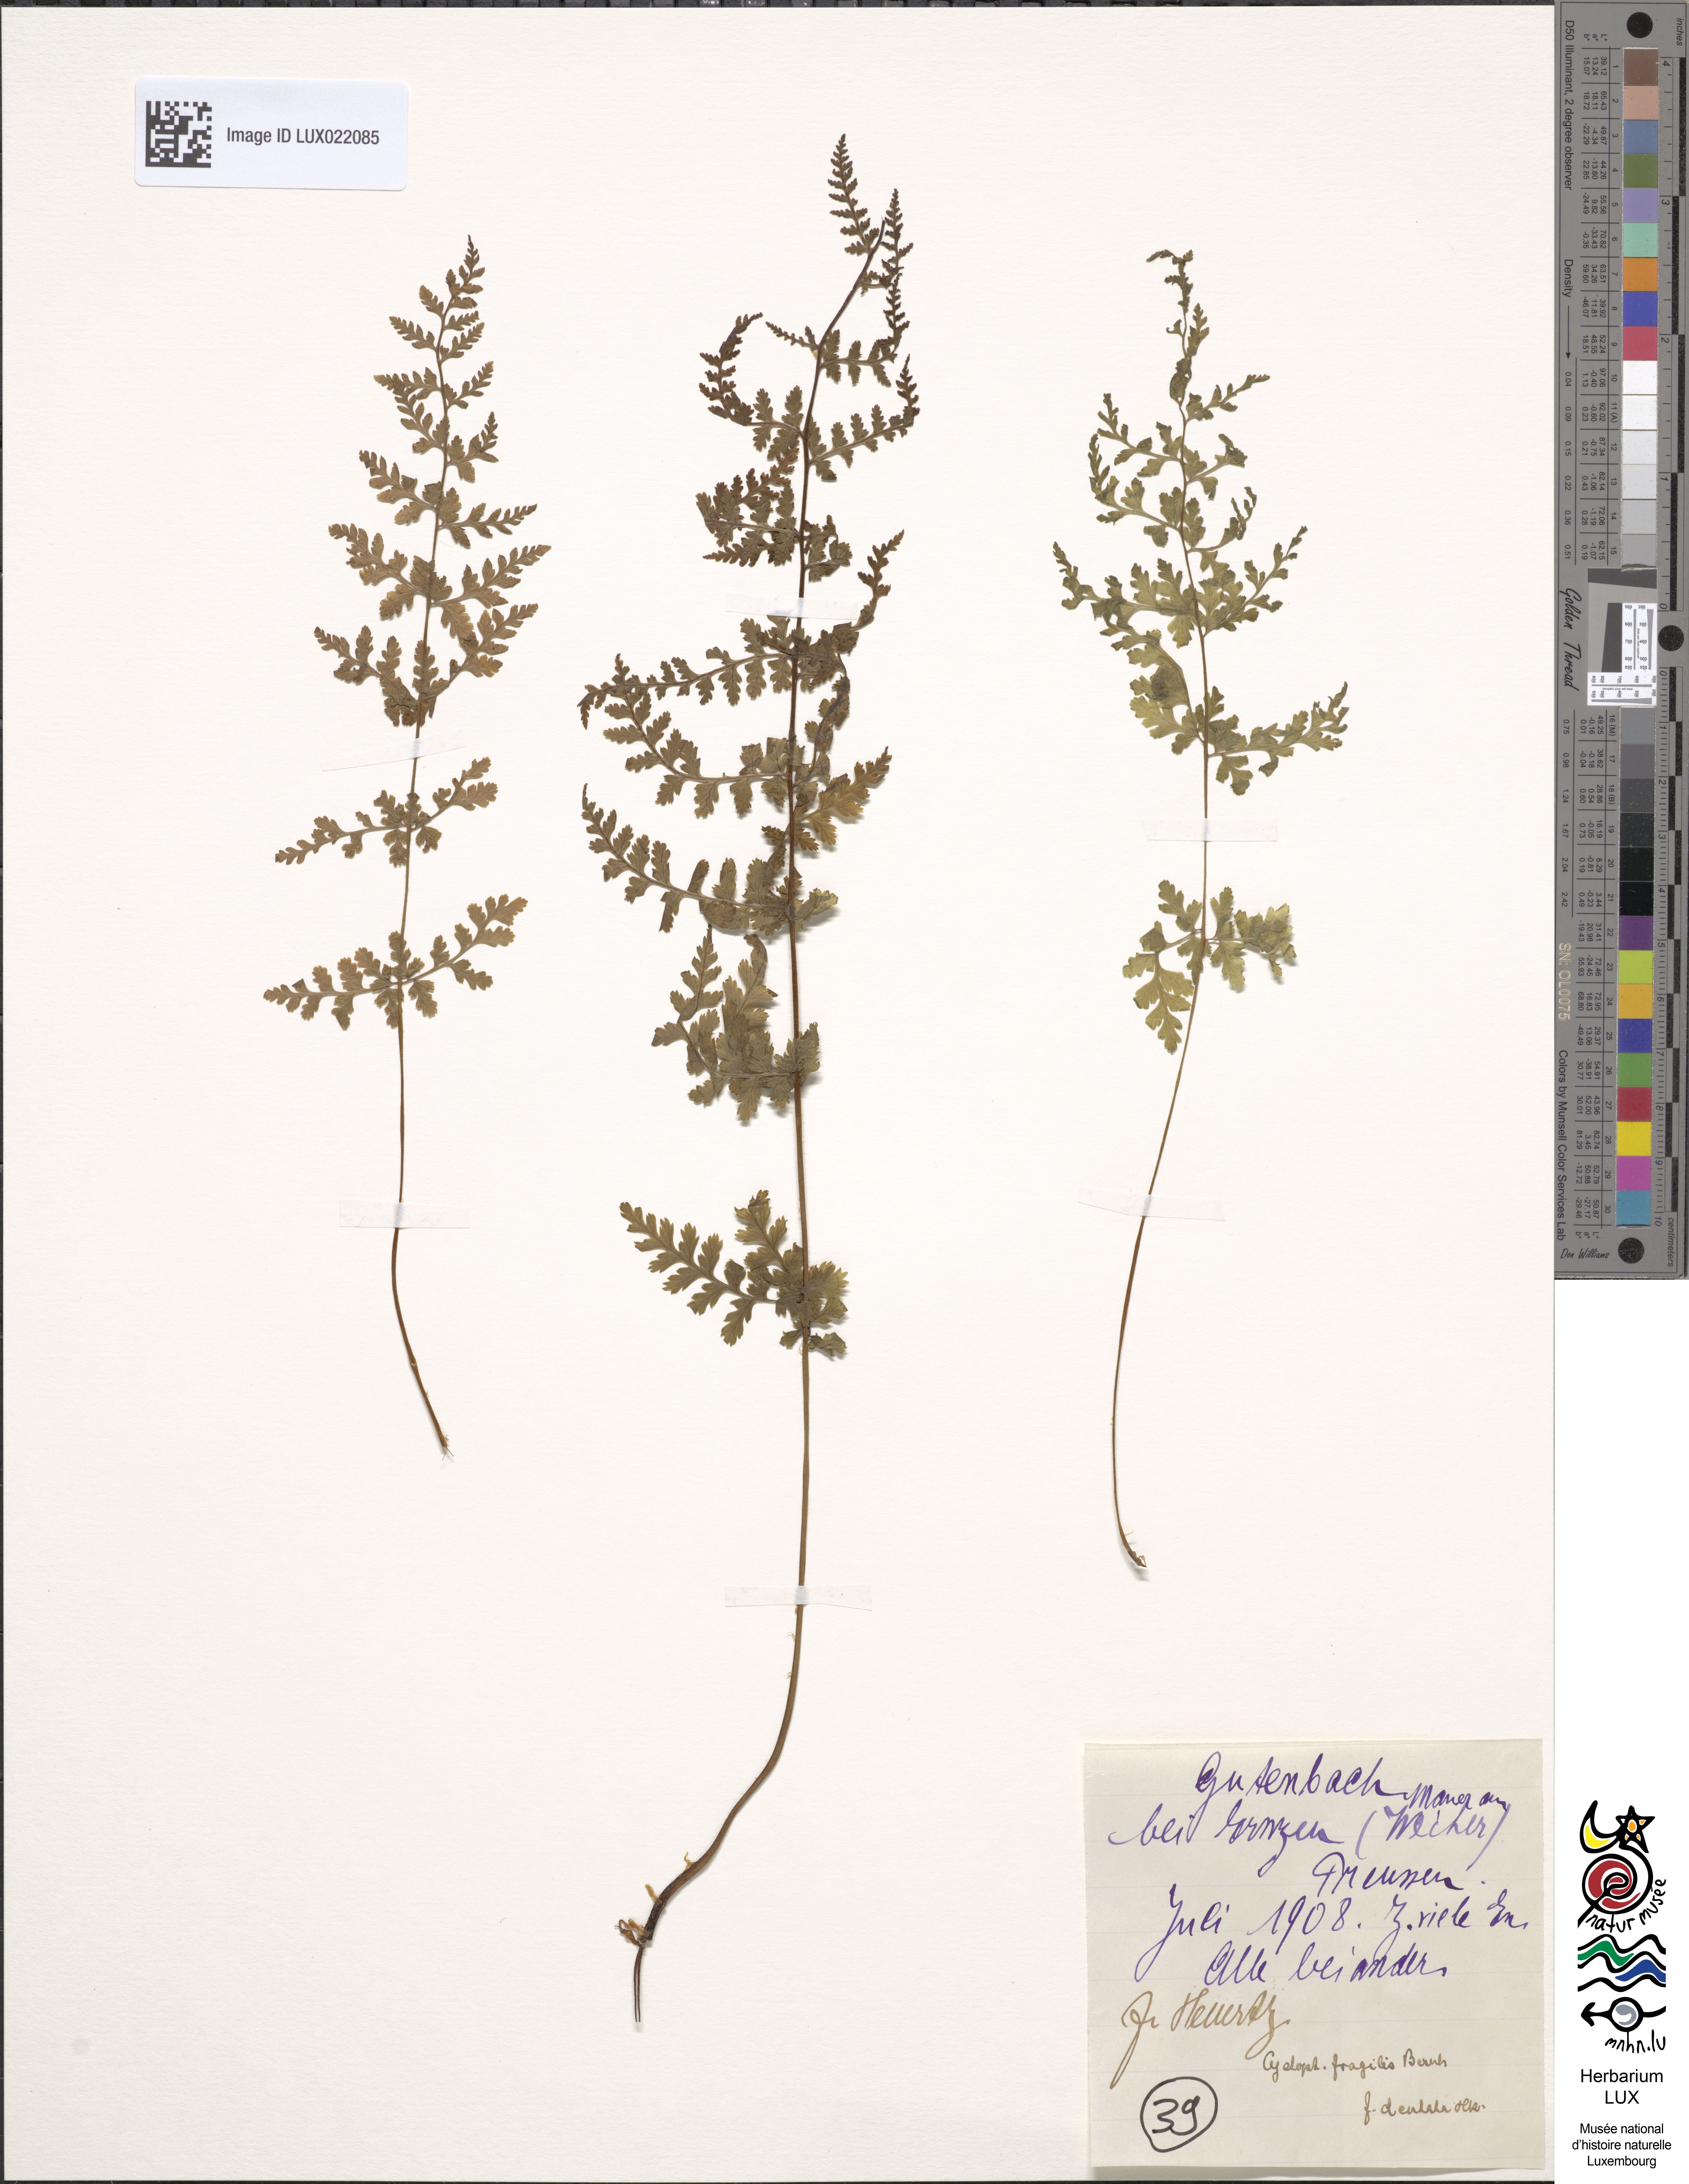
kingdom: Plantae
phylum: Tracheophyta
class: Polypodiopsida
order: Polypodiales
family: Cystopteridaceae
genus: Cystopteris
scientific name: Cystopteris fragilis
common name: Brittle bladder fern
